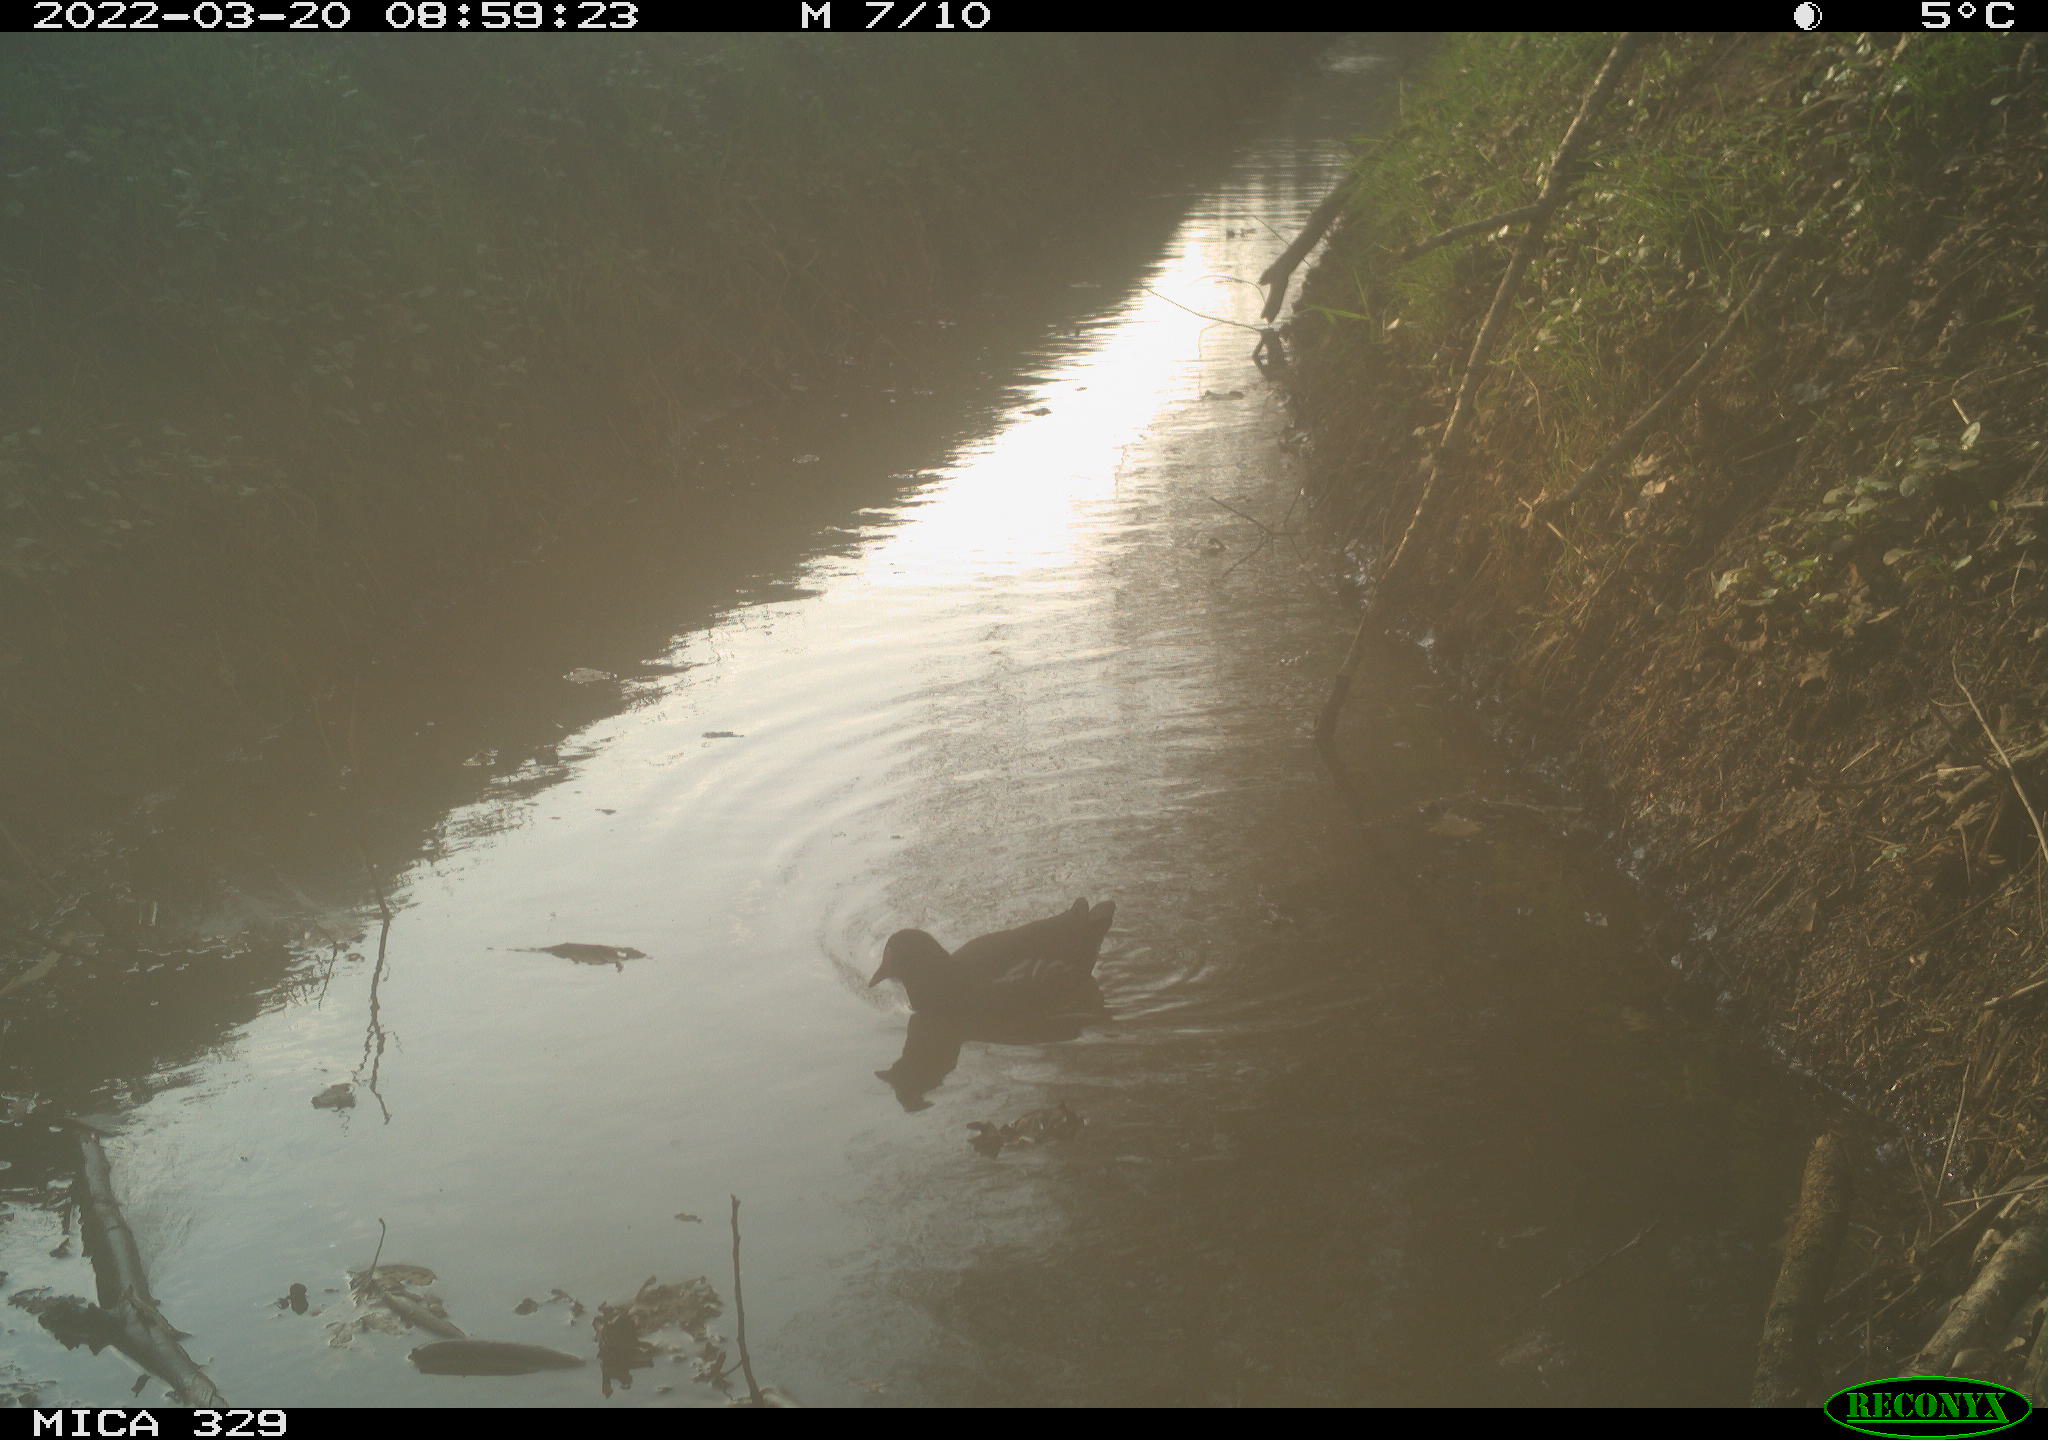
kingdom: Animalia
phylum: Chordata
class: Aves
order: Gruiformes
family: Rallidae
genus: Gallinula
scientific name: Gallinula chloropus
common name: Common moorhen
